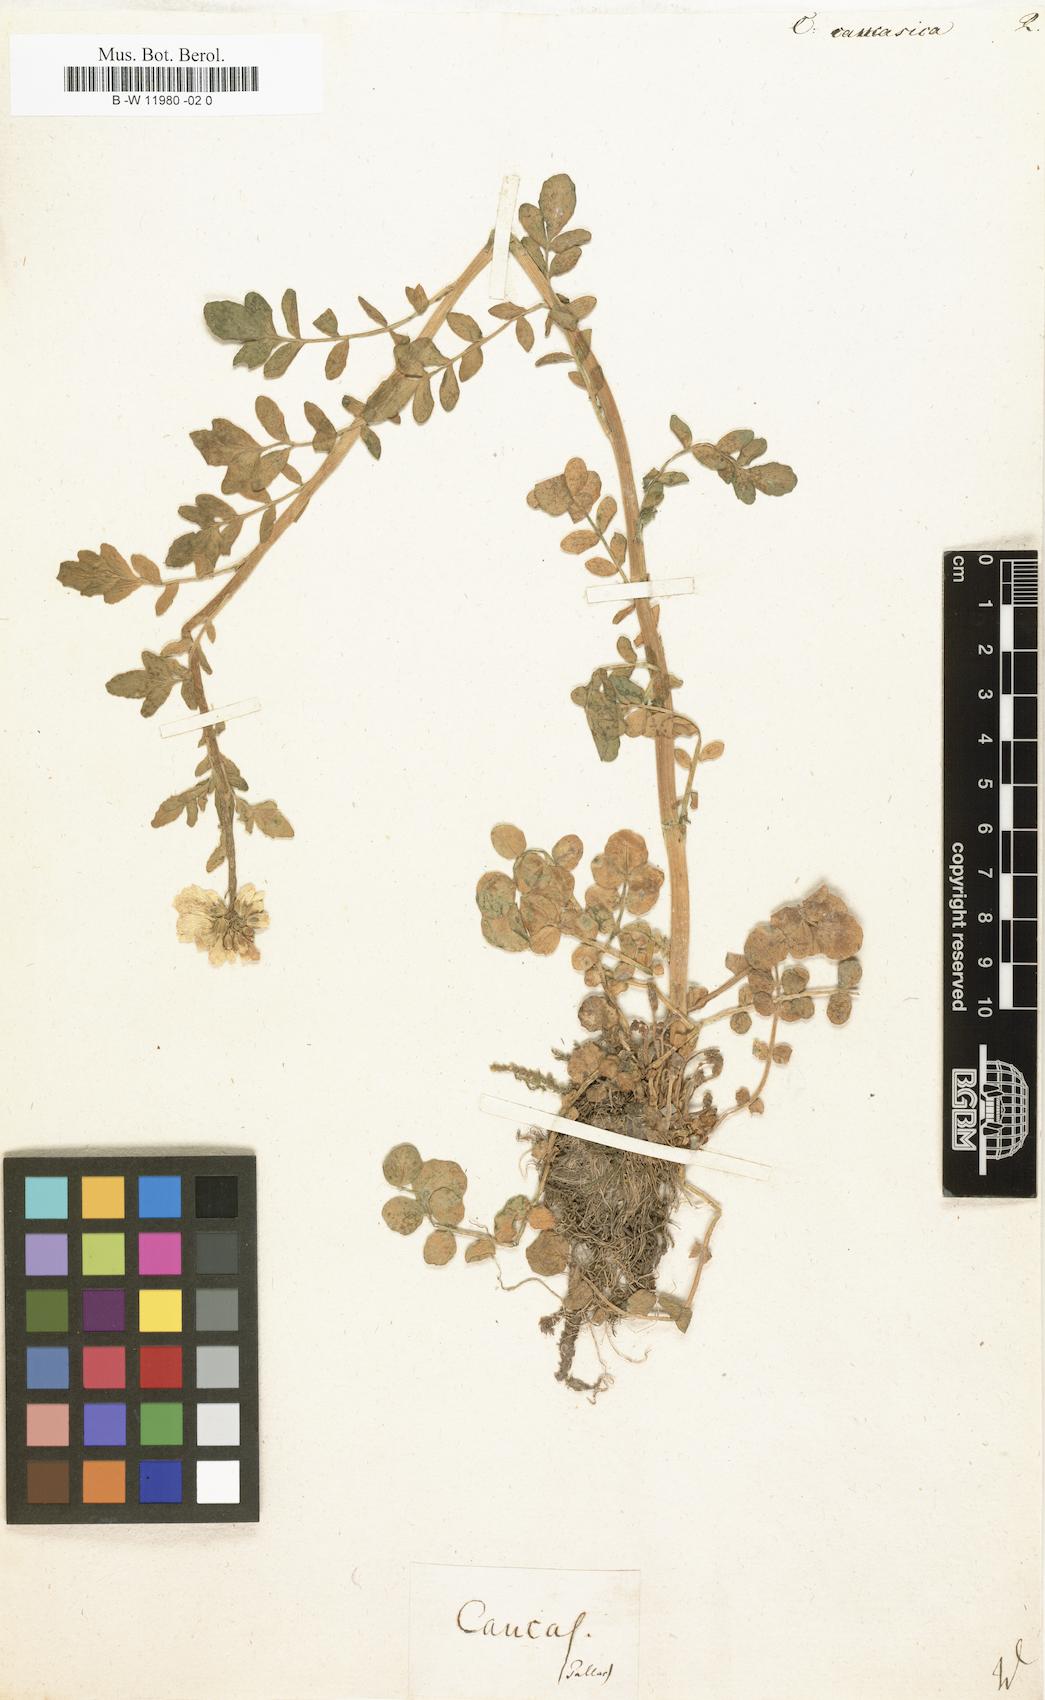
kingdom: Plantae
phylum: Tracheophyta
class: Magnoliopsida
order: Brassicales
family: Brassicaceae
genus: Cardamine
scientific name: Cardamine uliginosa
